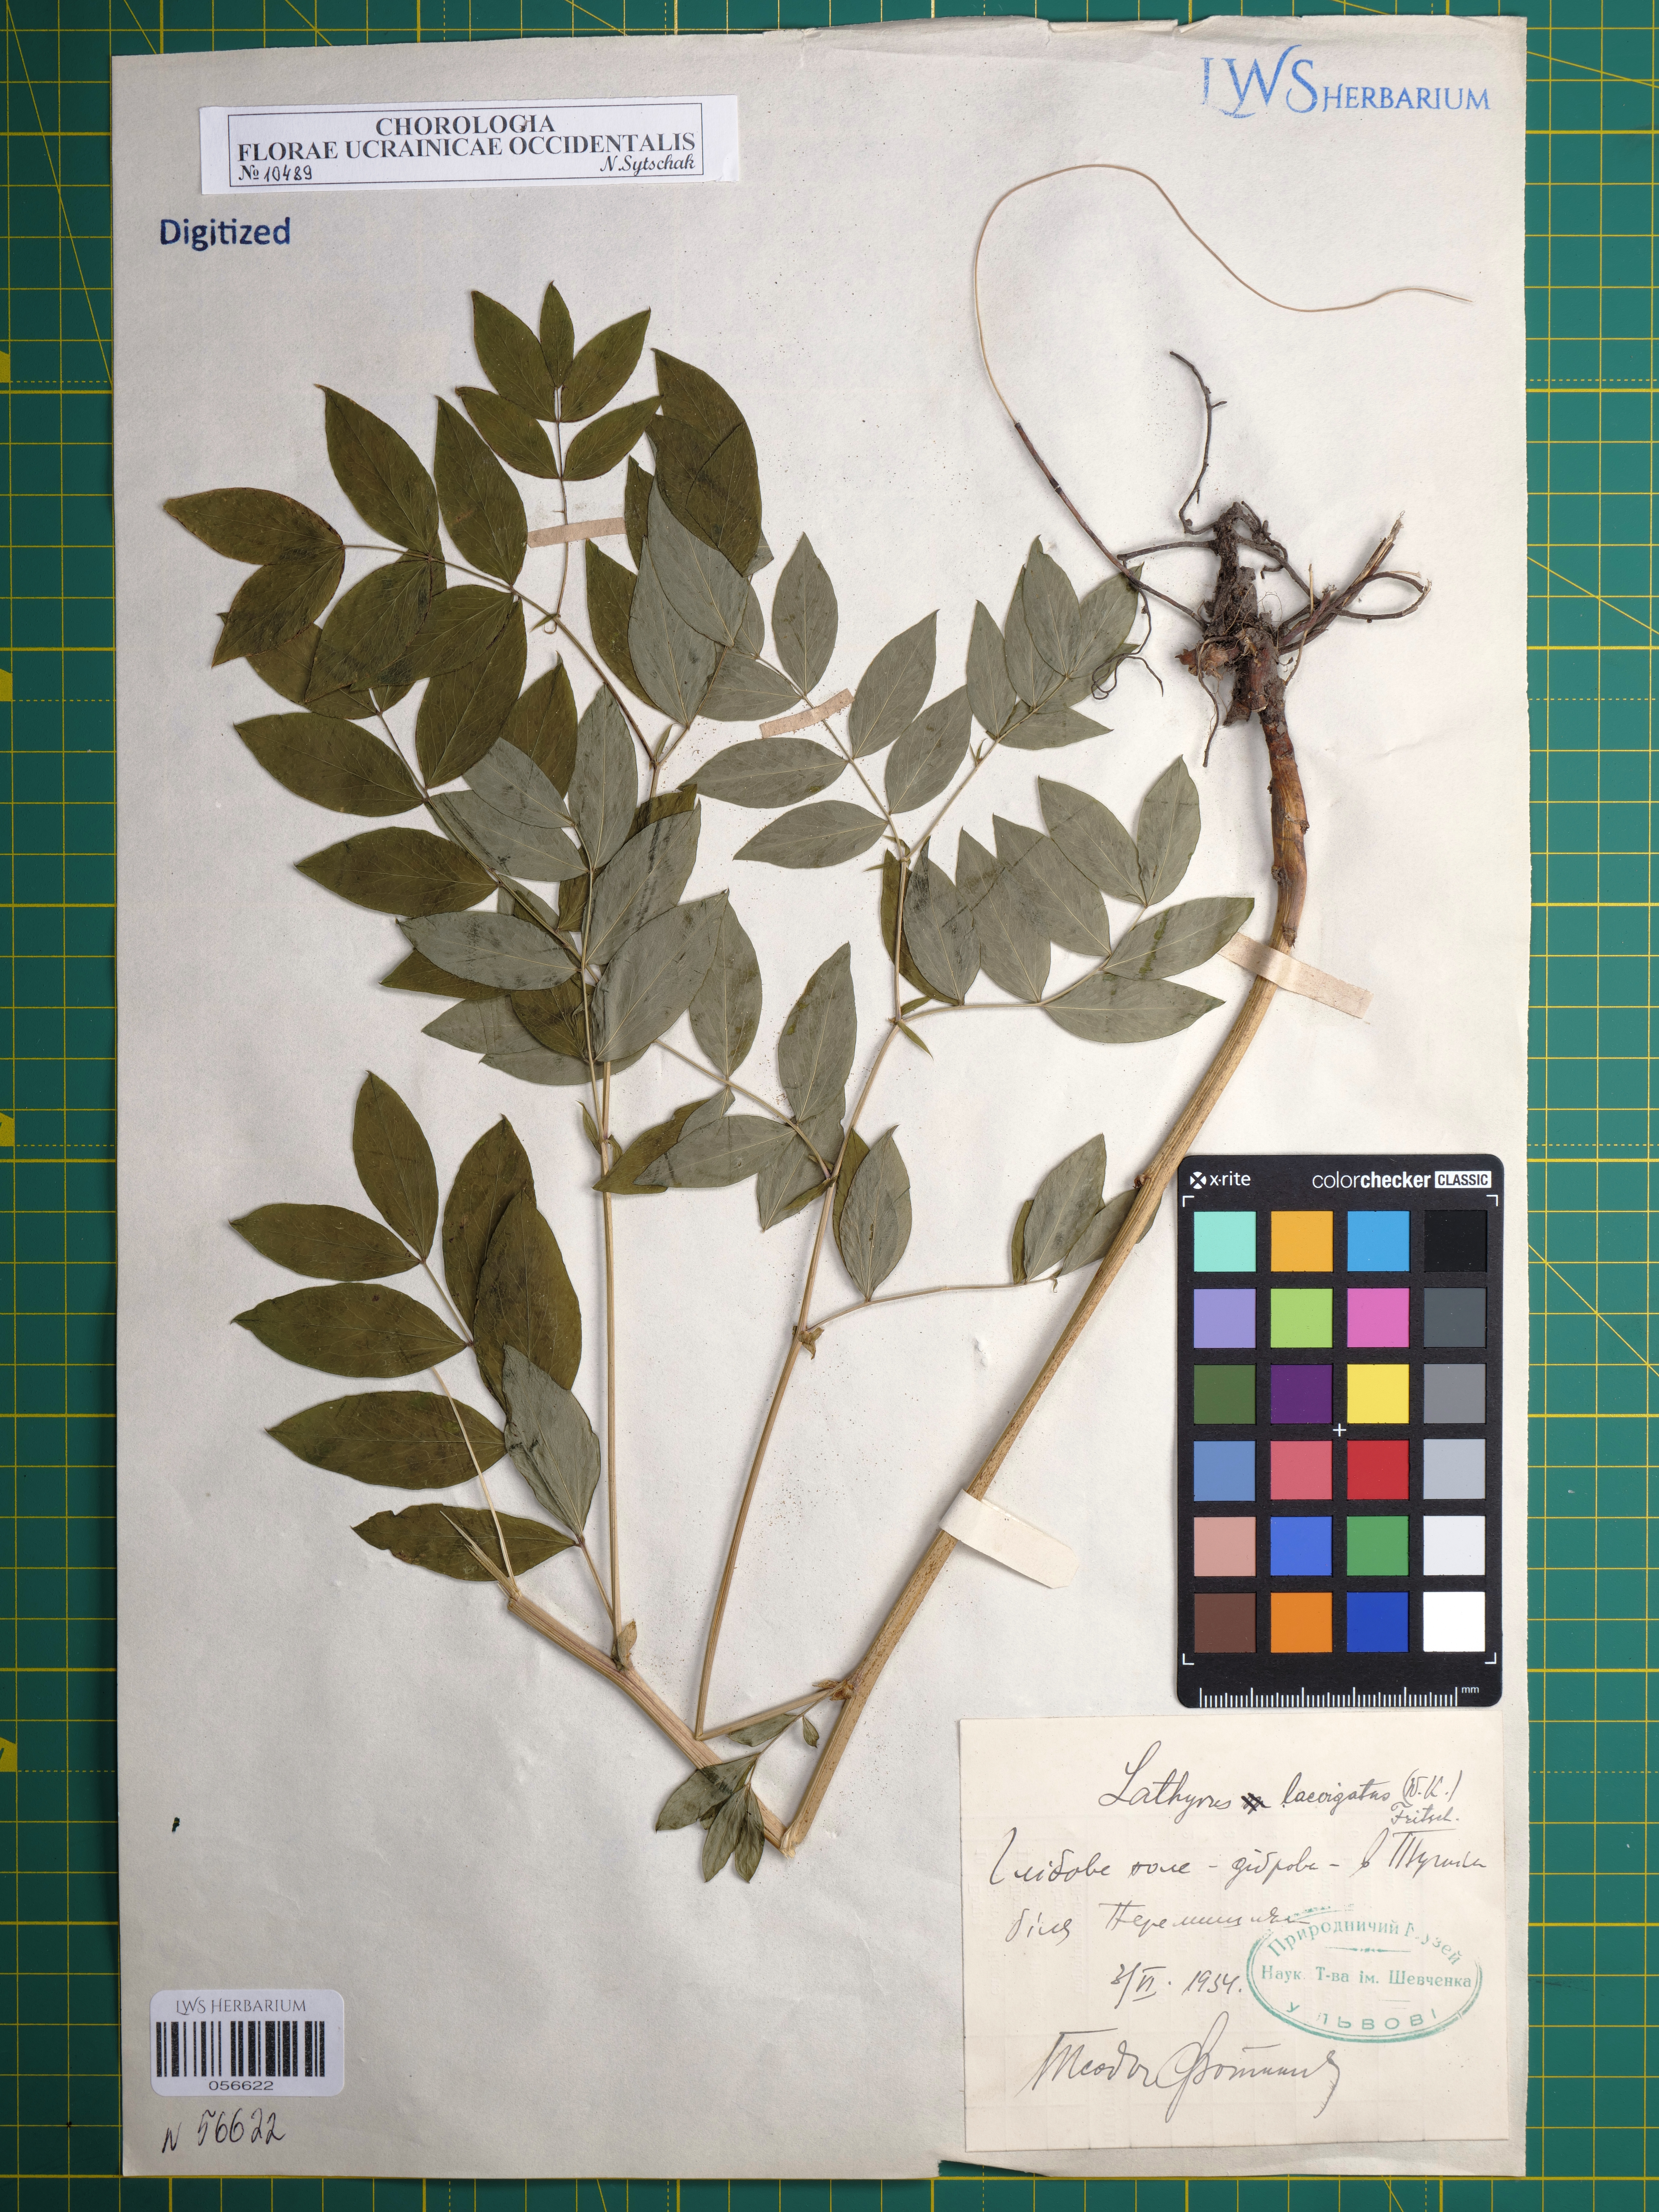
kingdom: Plantae
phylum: Tracheophyta
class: Magnoliopsida
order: Fabales
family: Fabaceae
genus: Lathyrus
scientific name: Lathyrus laevigatus
